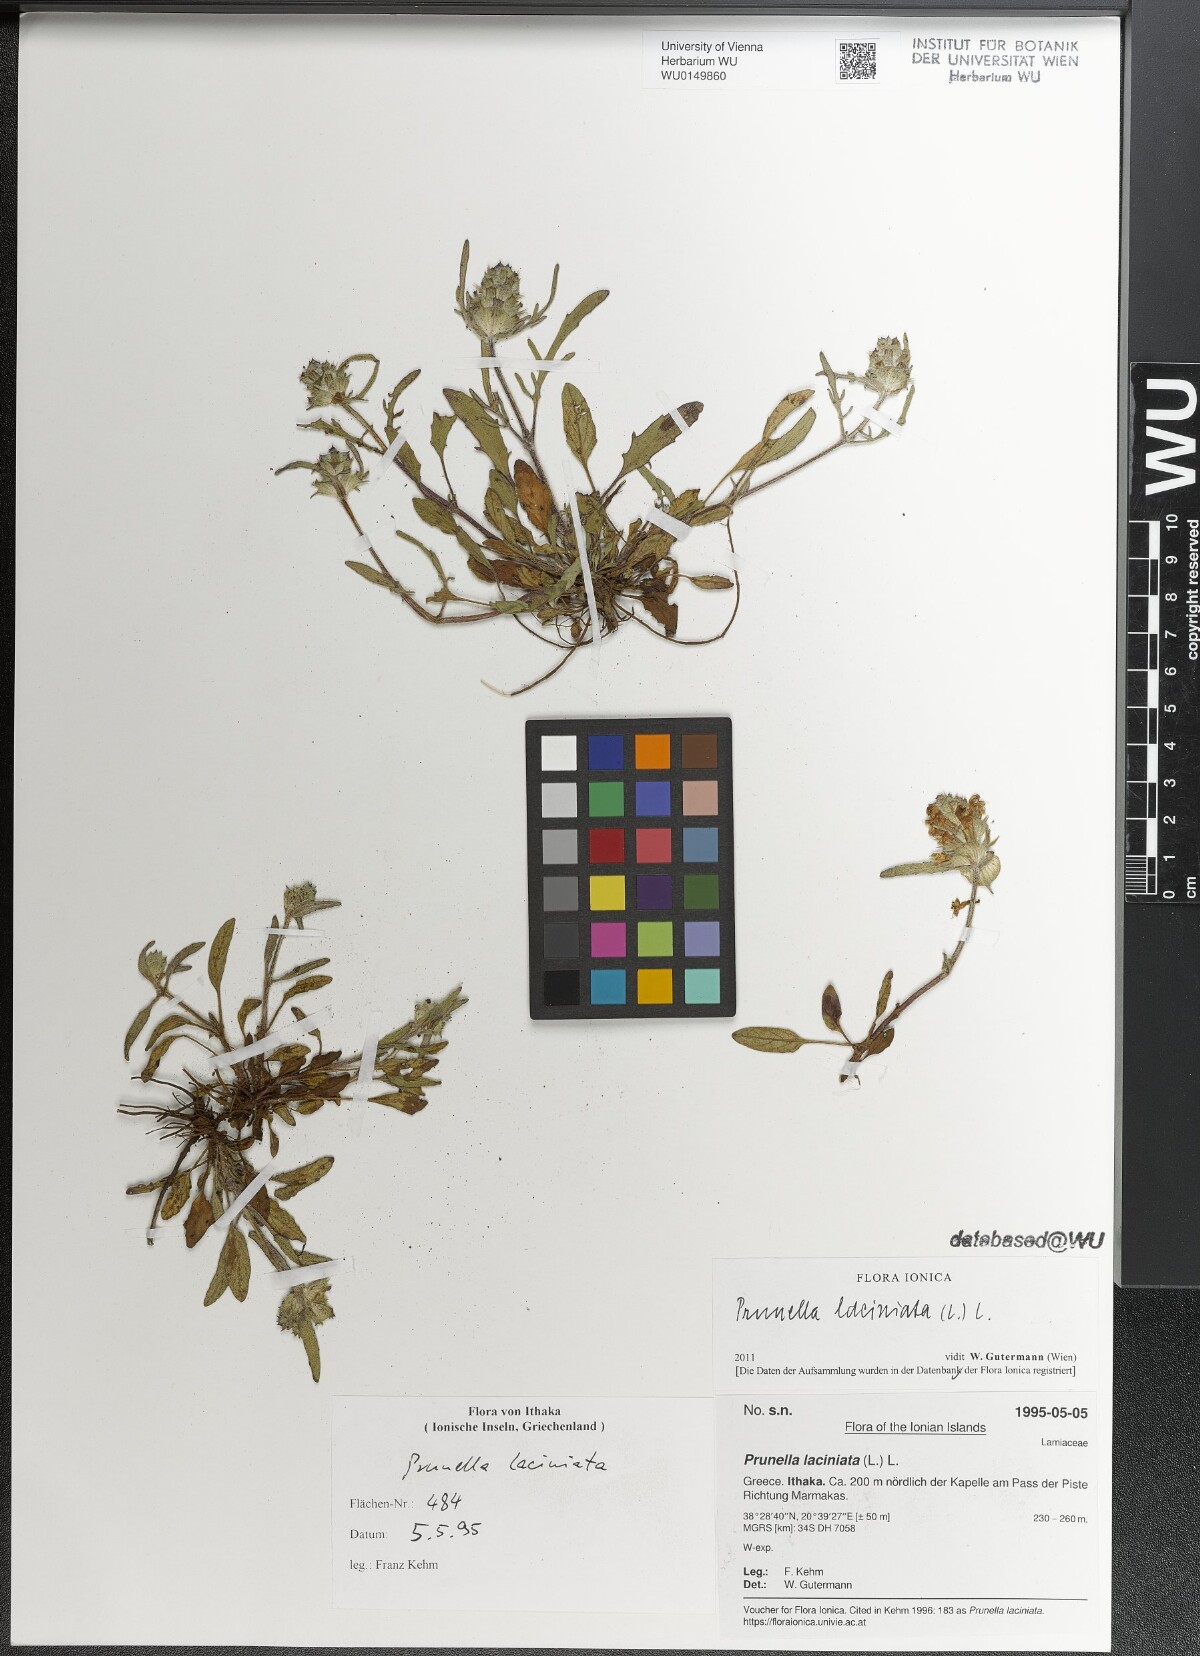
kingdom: Plantae
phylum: Tracheophyta
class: Magnoliopsida
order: Lamiales
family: Lamiaceae
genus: Prunella
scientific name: Prunella laciniata
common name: Cut-leaved selfheal
